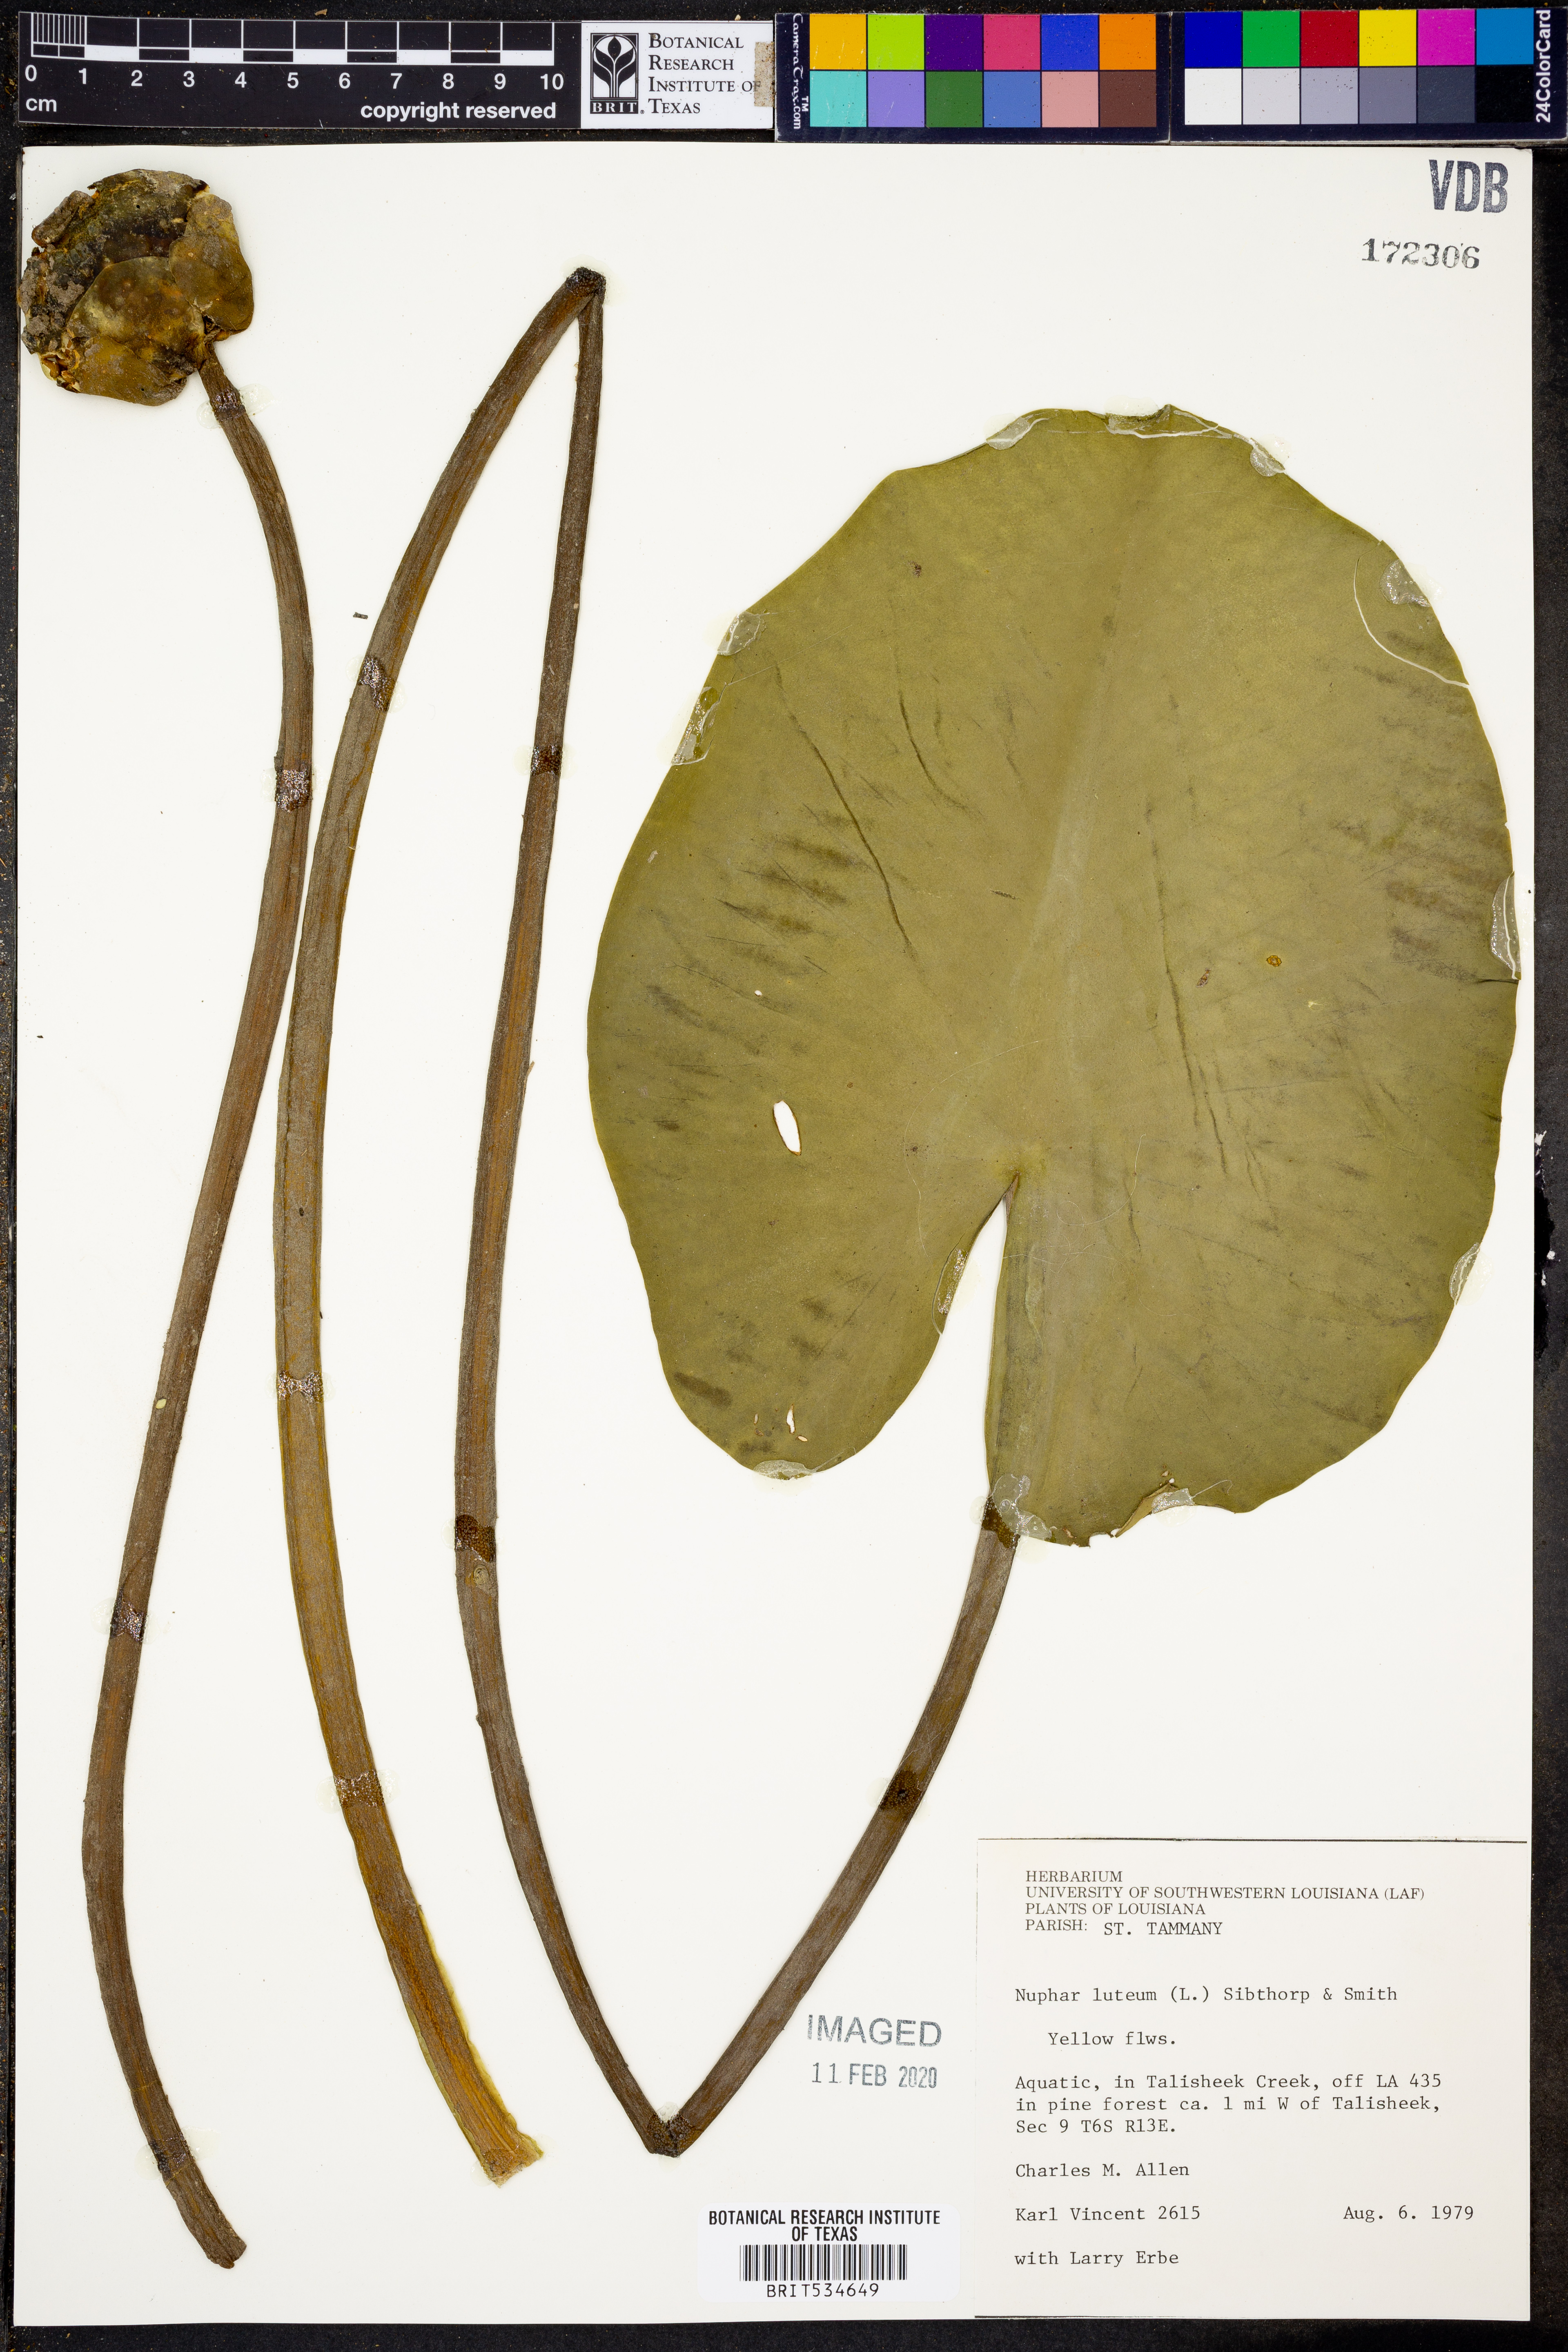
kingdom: Plantae
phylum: Tracheophyta
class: Magnoliopsida
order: Nymphaeales
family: Nymphaeaceae
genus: Nuphar
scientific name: Nuphar lutea
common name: Yellow water-lily
